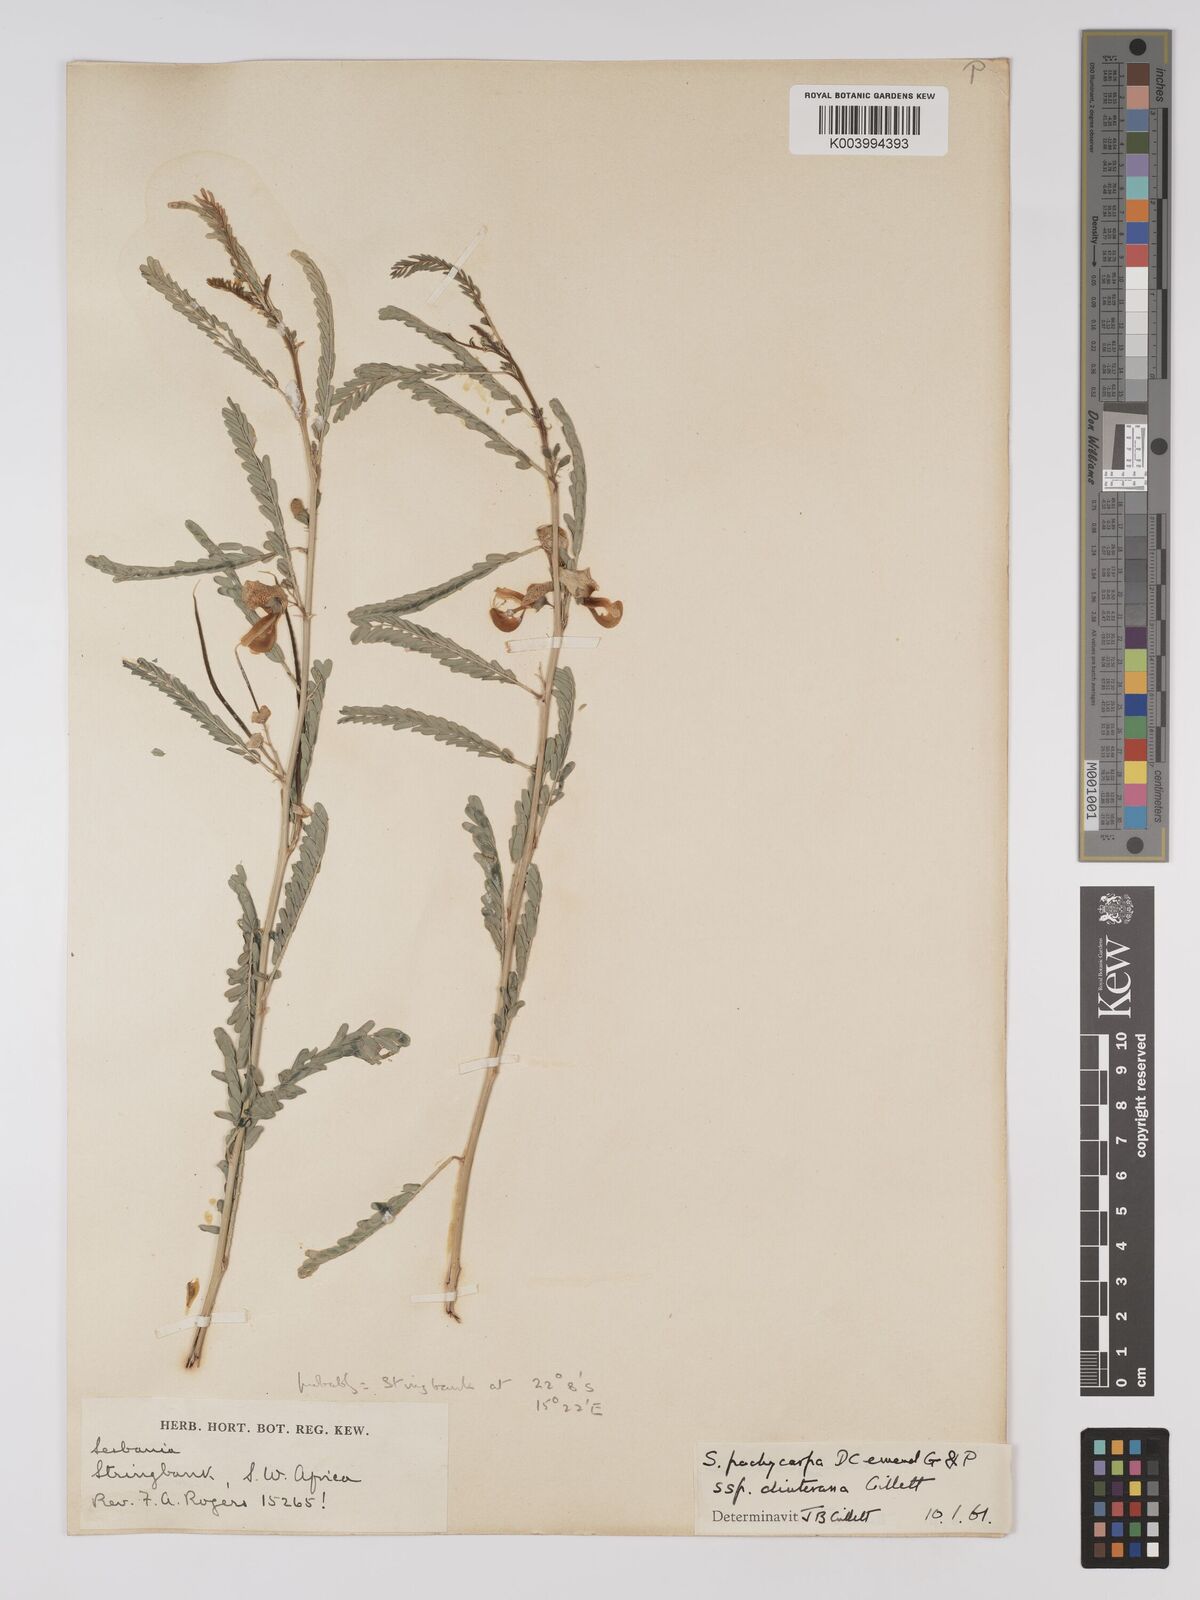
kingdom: Plantae
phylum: Tracheophyta
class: Magnoliopsida
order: Fabales
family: Fabaceae
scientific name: Fabaceae
